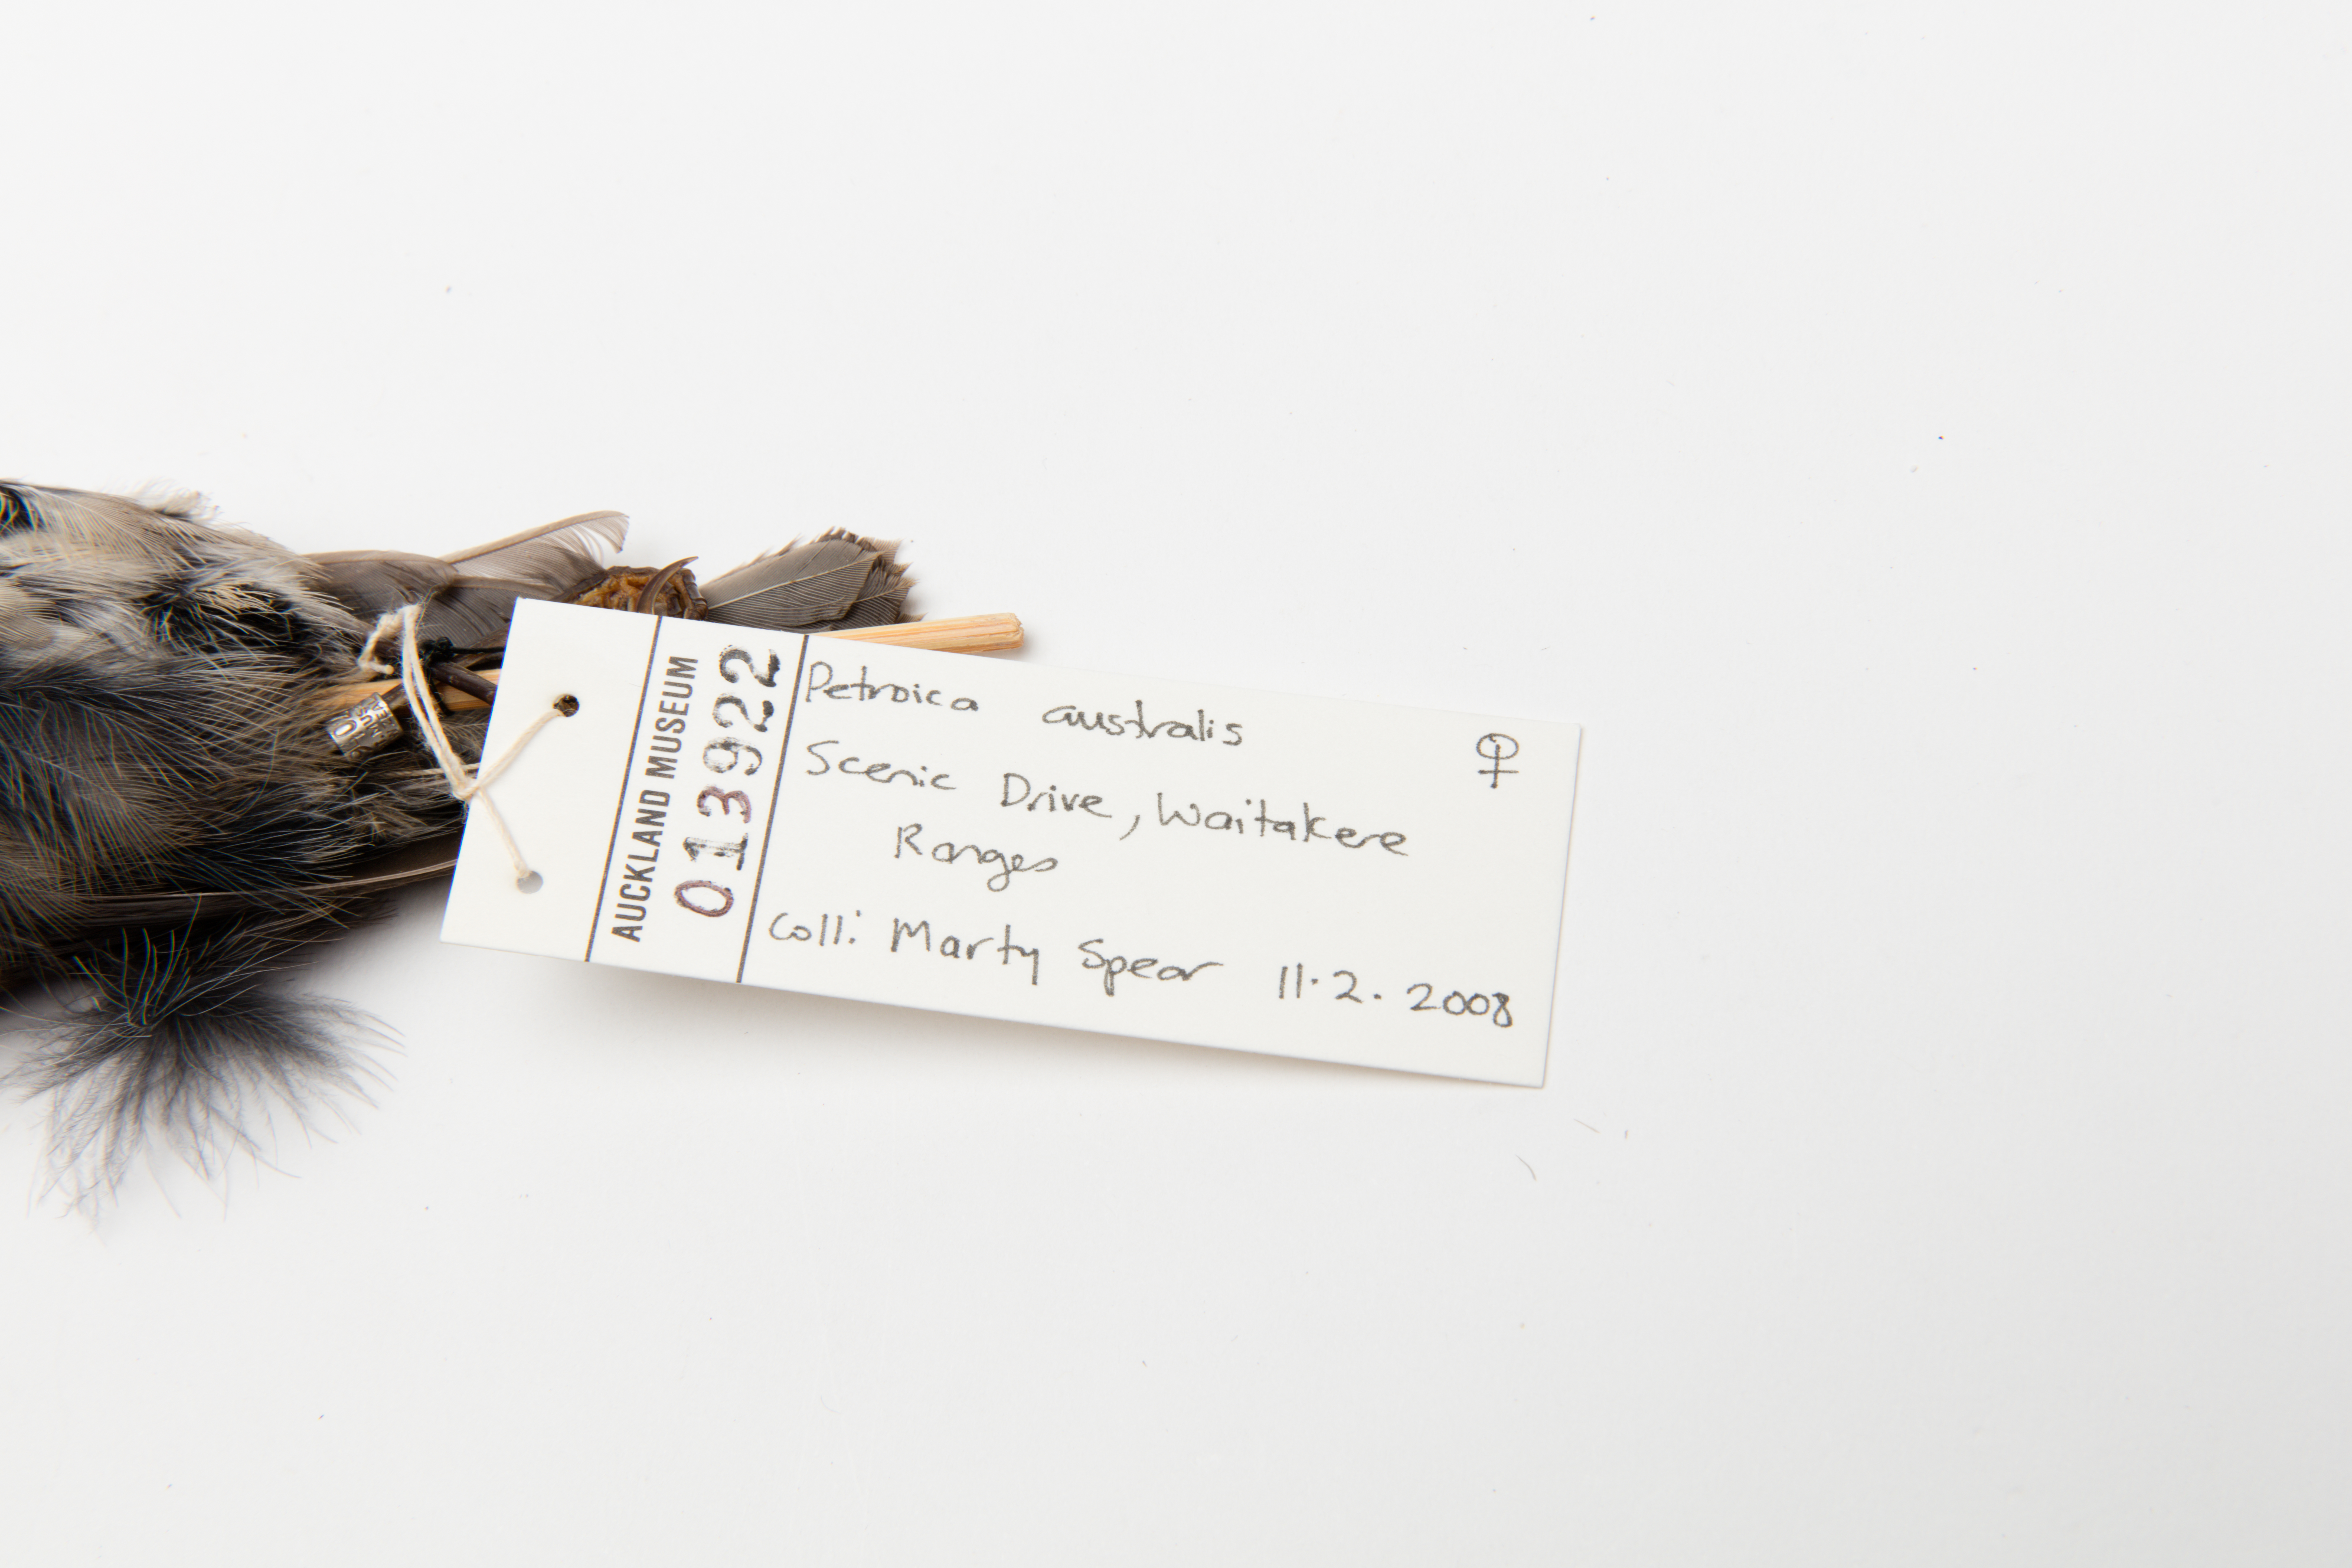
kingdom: Animalia
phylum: Chordata
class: Aves
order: Passeriformes
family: Petroicidae
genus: Petroica
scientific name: Petroica australis
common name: New zealand robin
